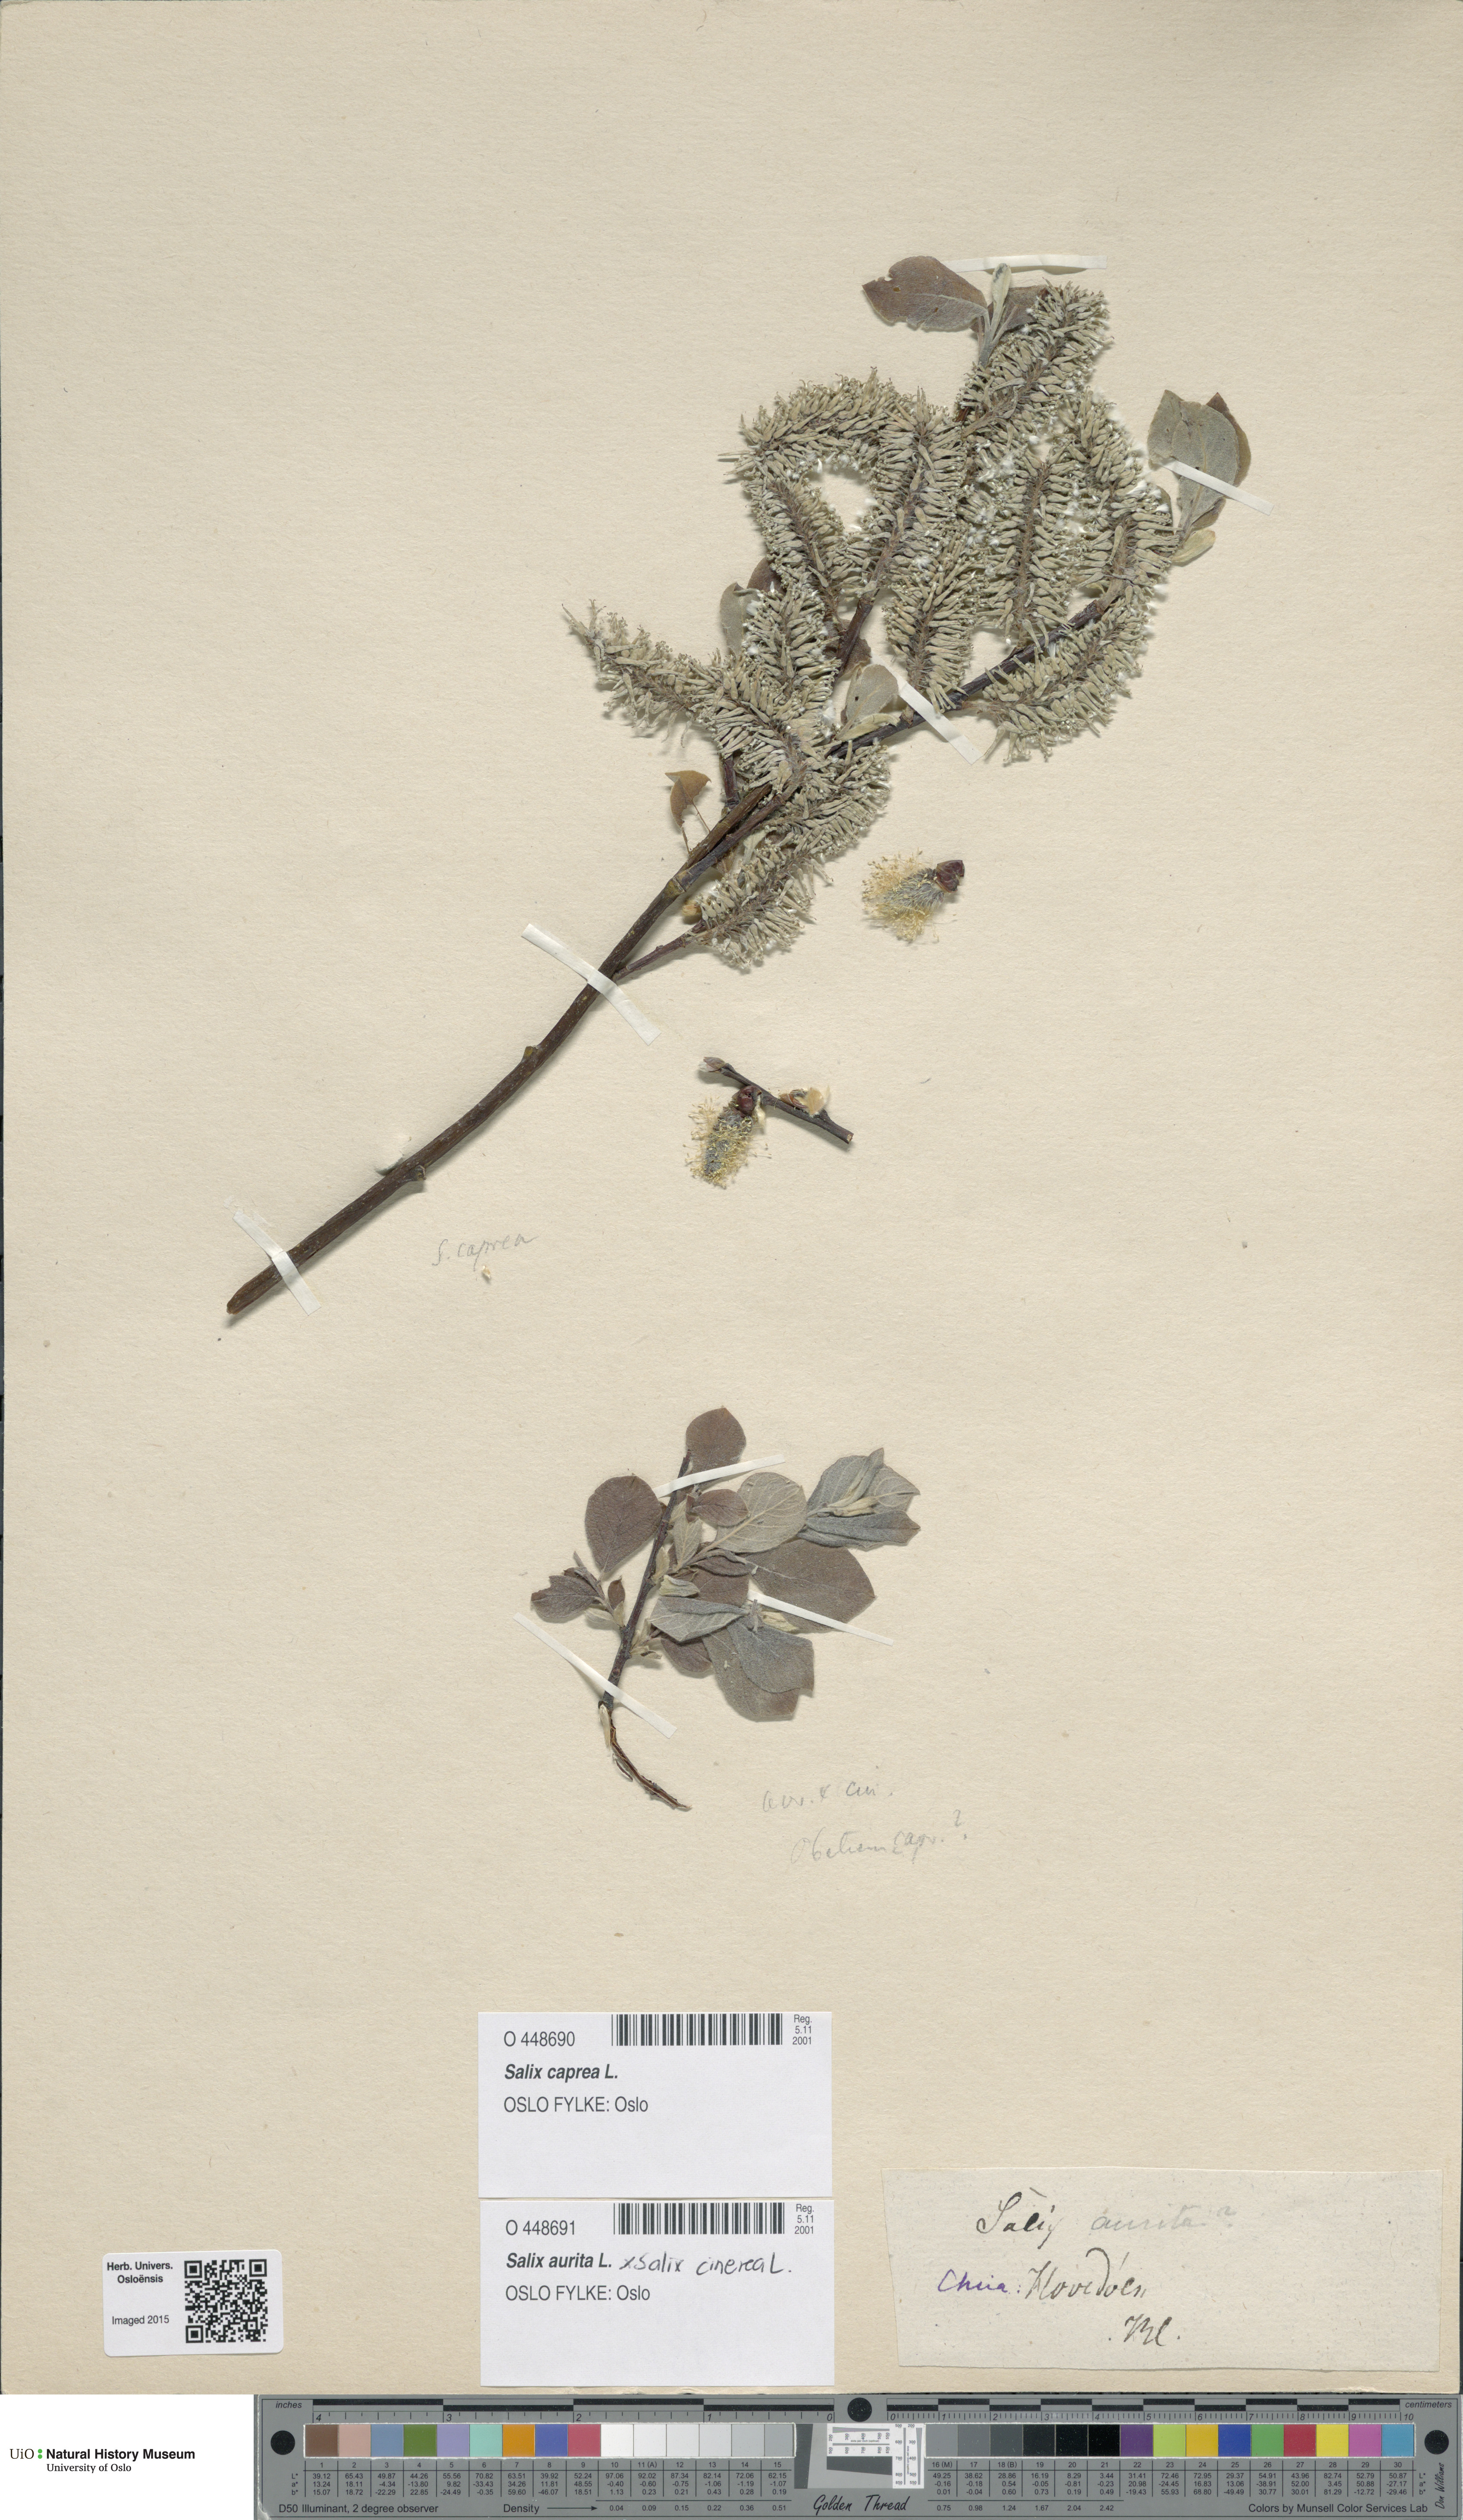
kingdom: Plantae
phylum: Tracheophyta
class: Magnoliopsida
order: Malpighiales
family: Salicaceae
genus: Salix
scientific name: Salix caprea
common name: Goat willow
